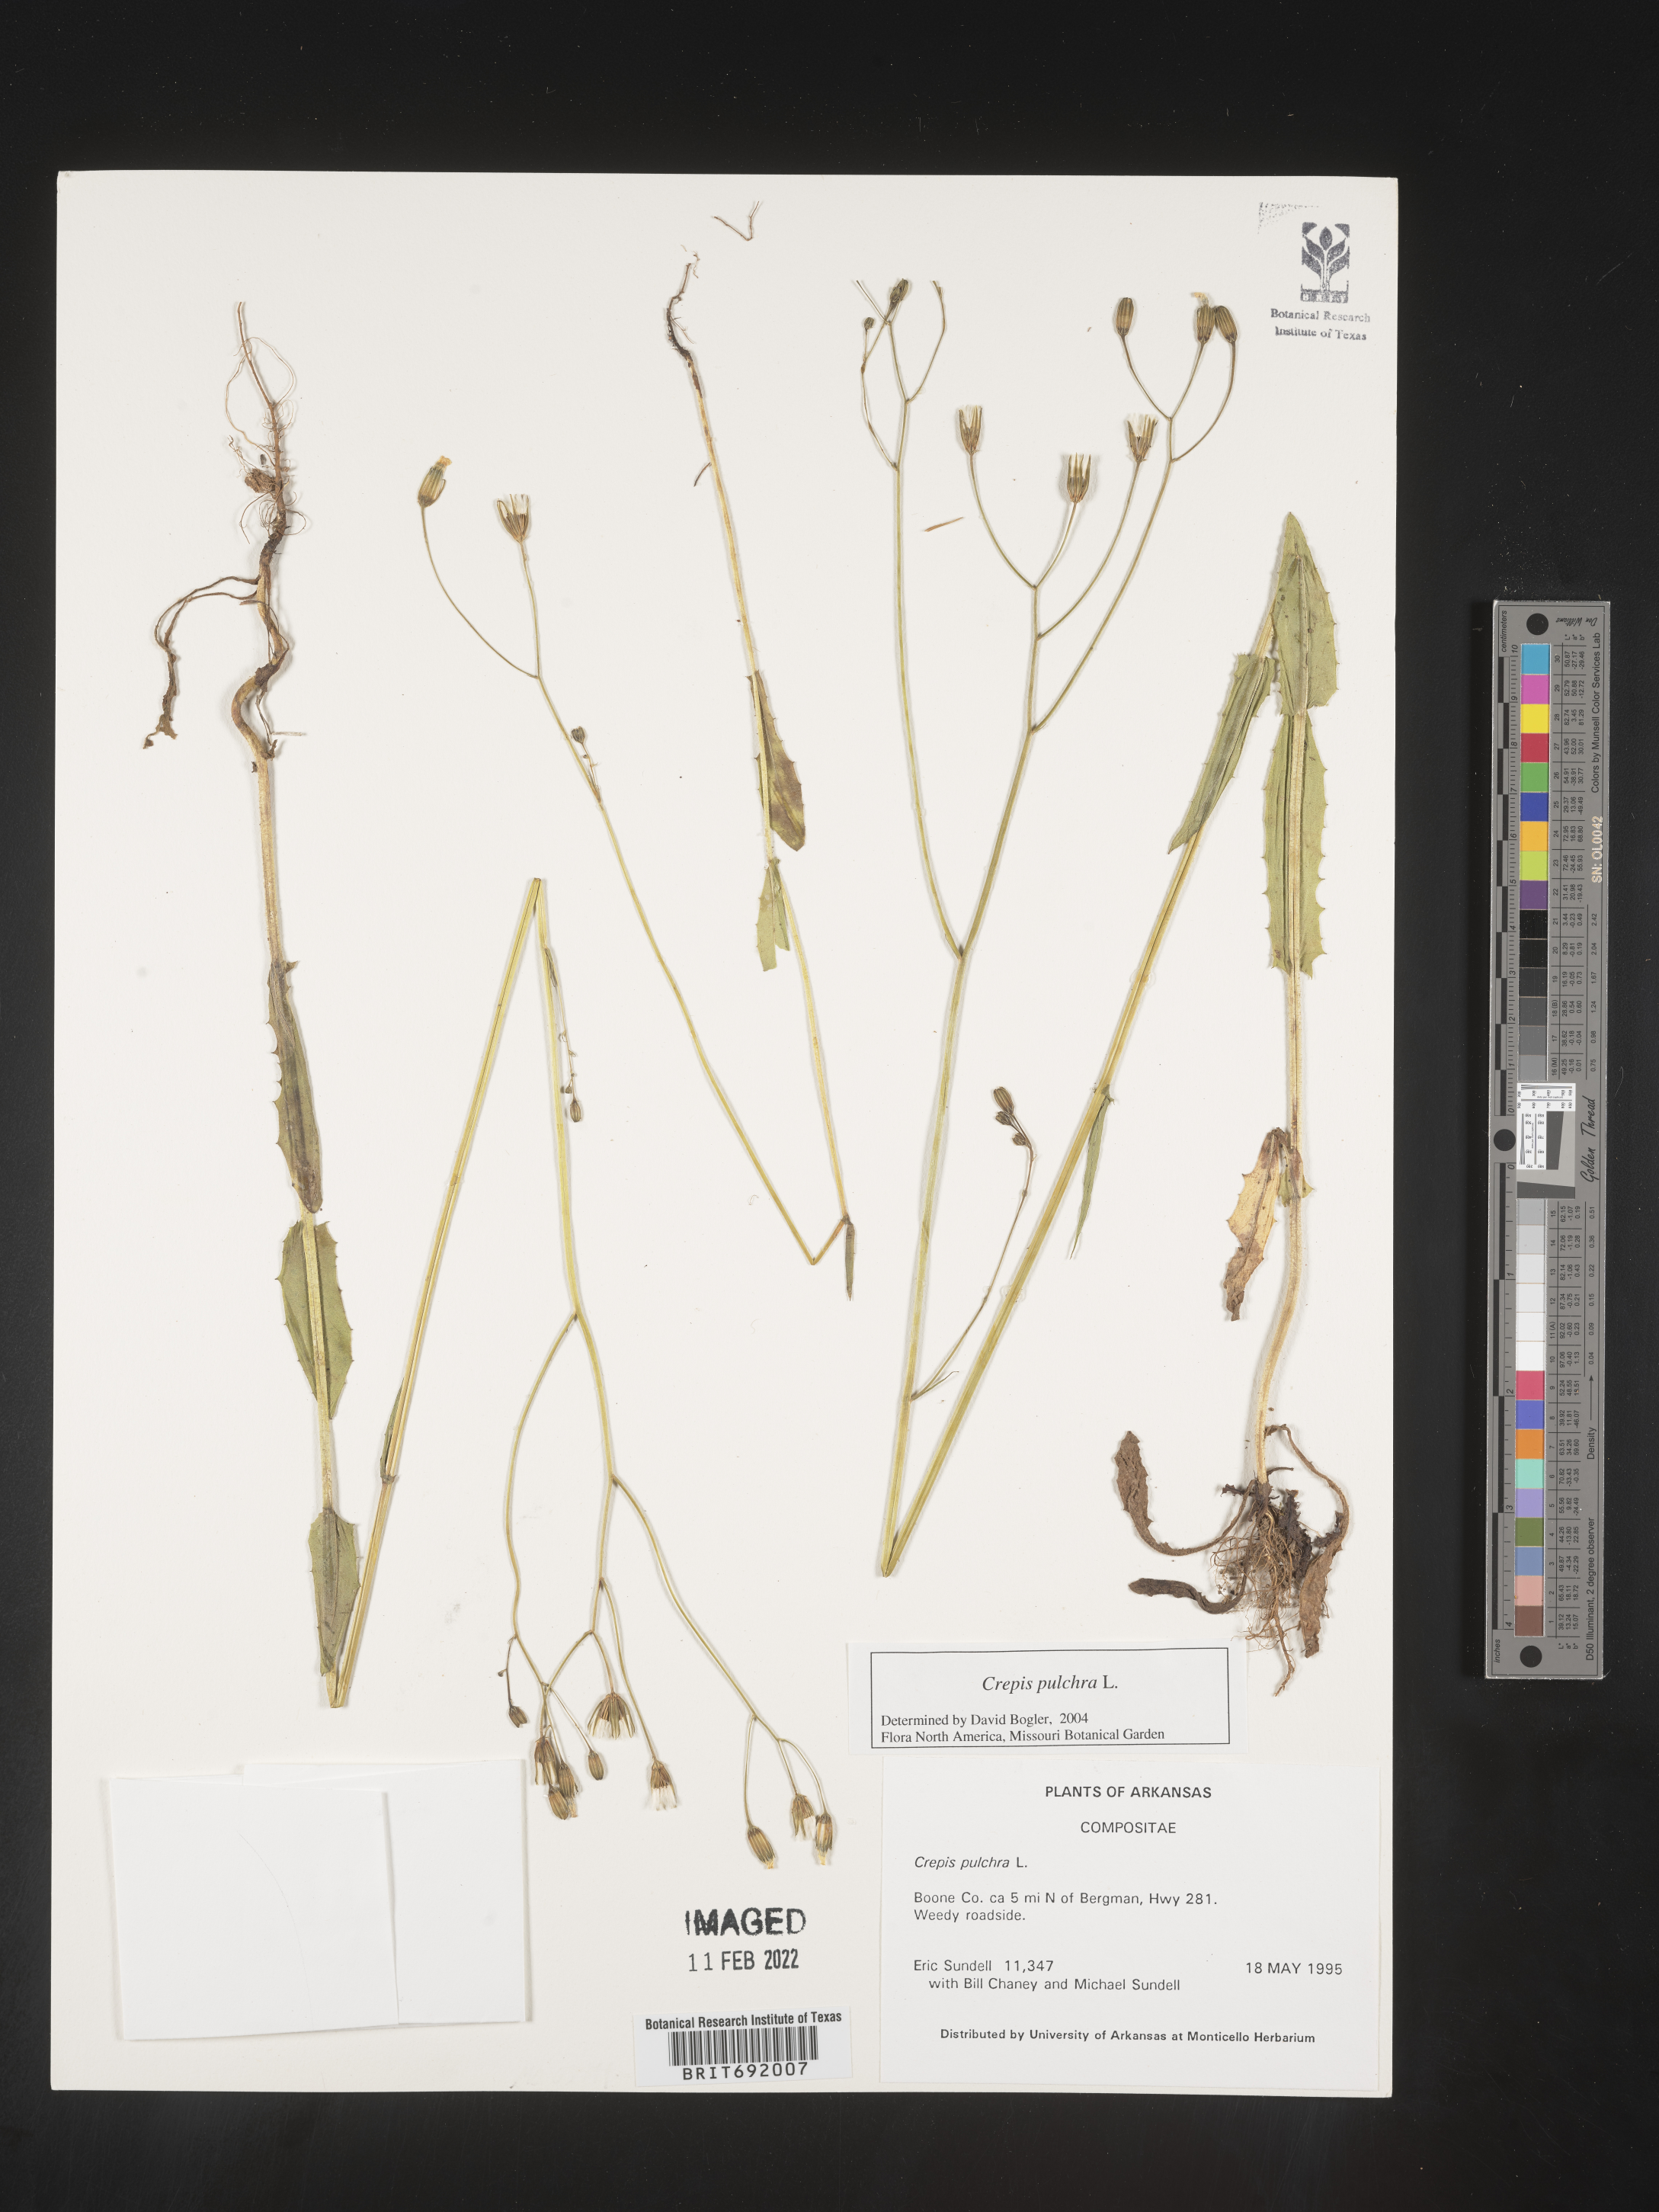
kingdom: Plantae
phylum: Tracheophyta
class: Magnoliopsida
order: Asterales
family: Asteraceae
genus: Crepis
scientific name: Crepis pulchra
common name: Hawk's-beard
